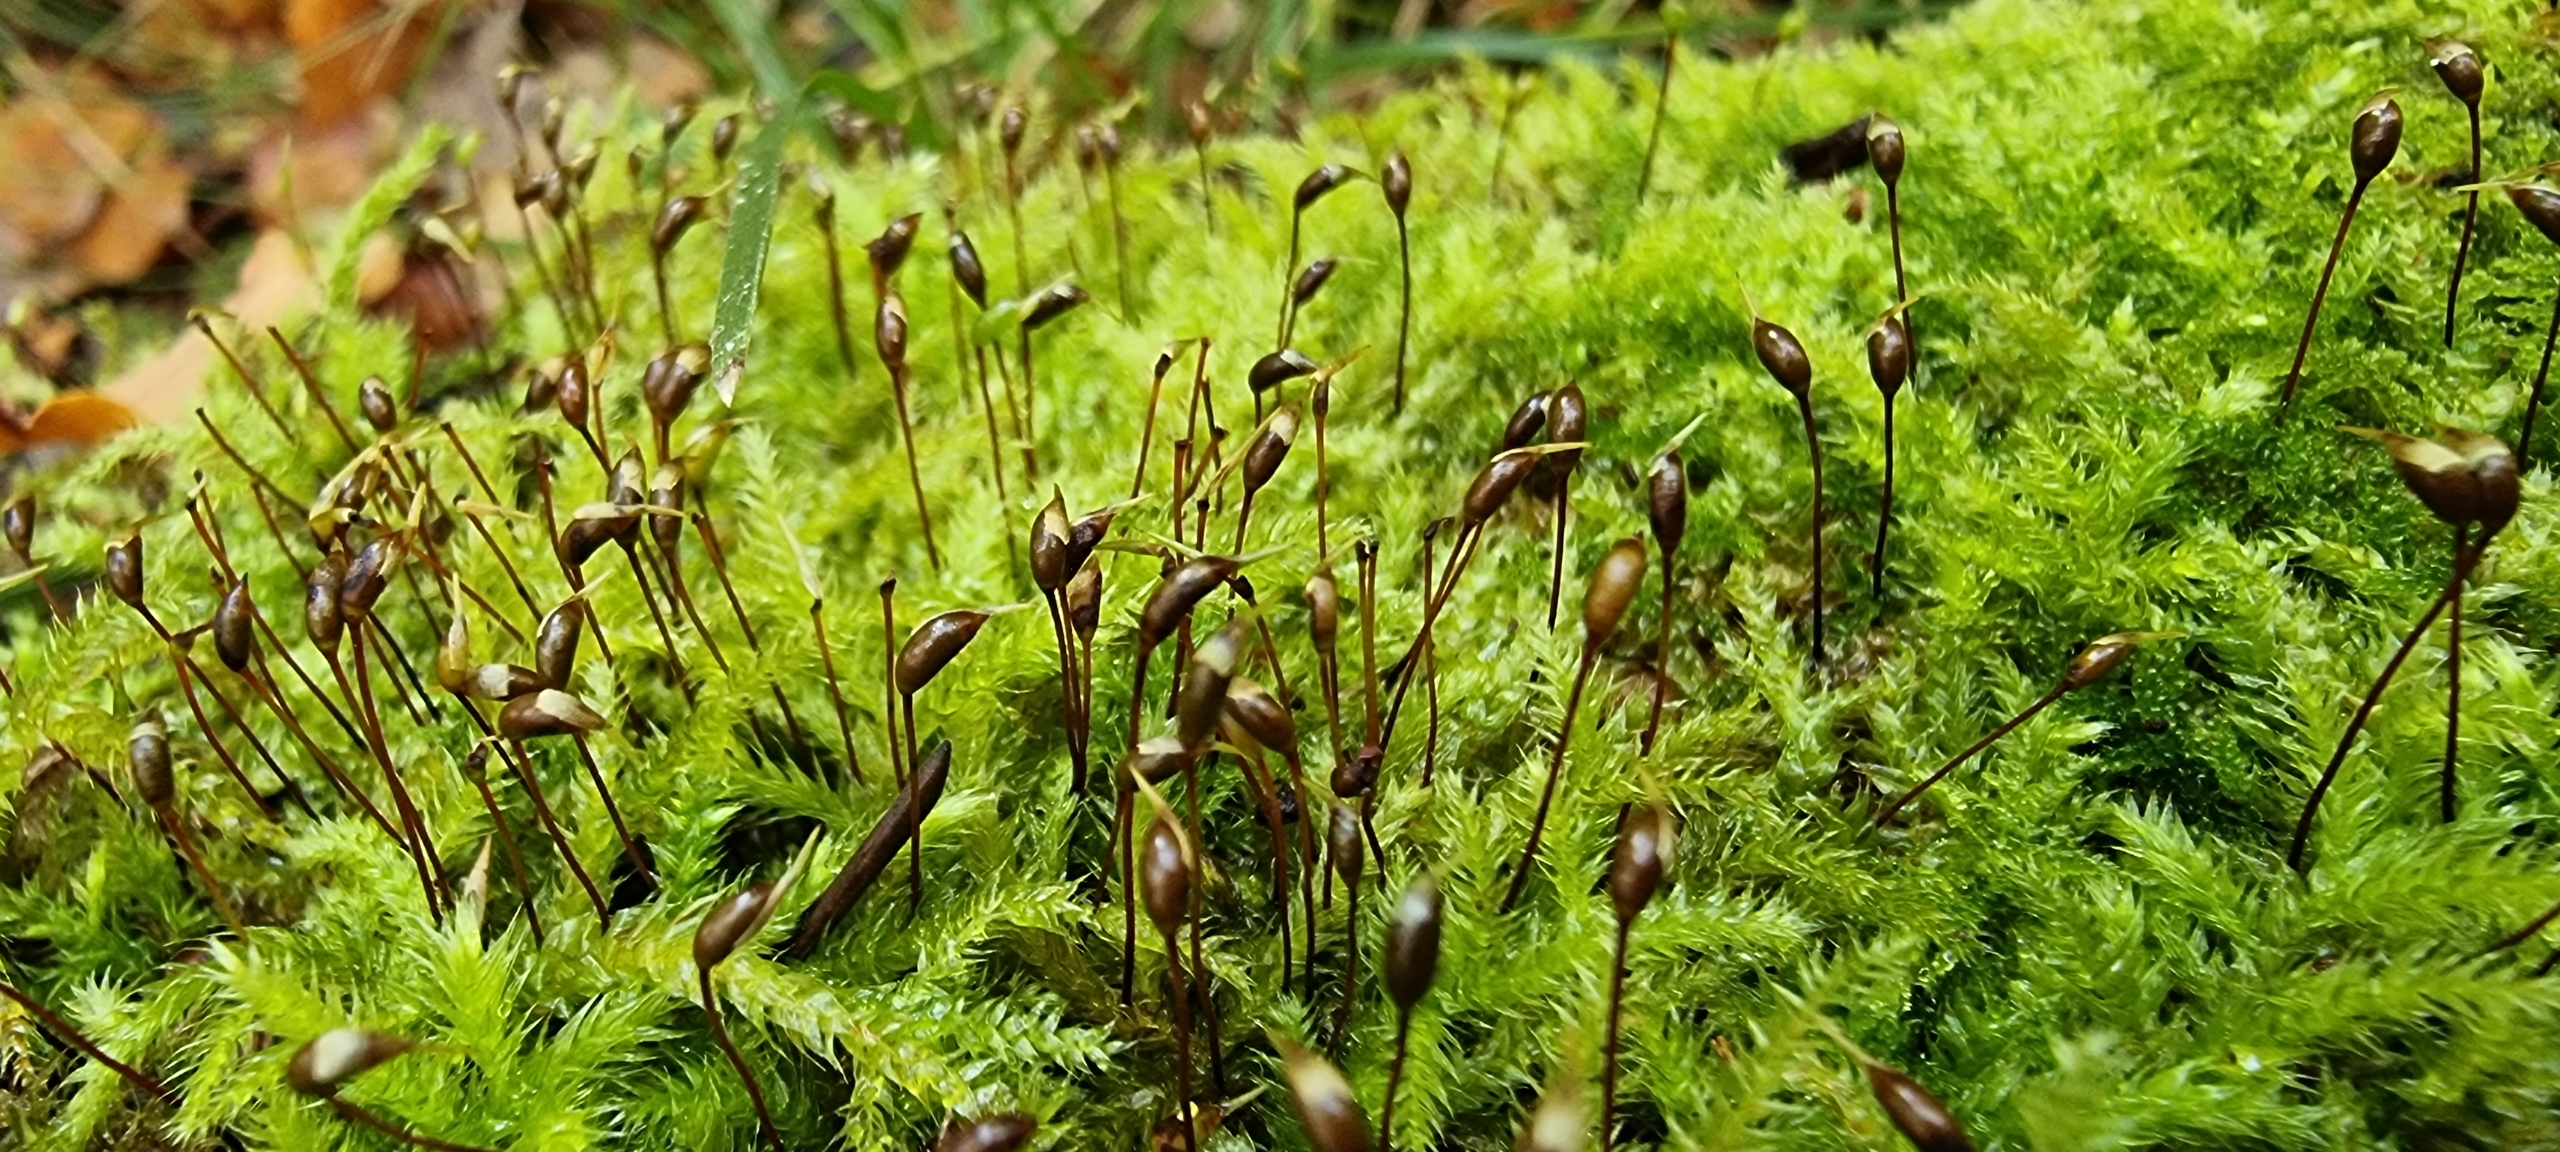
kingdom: Plantae
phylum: Bryophyta
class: Bryopsida
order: Hypnales
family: Brachytheciaceae
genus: Brachythecium
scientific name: Brachythecium rutabulum
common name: Almindelig kortkapsel
